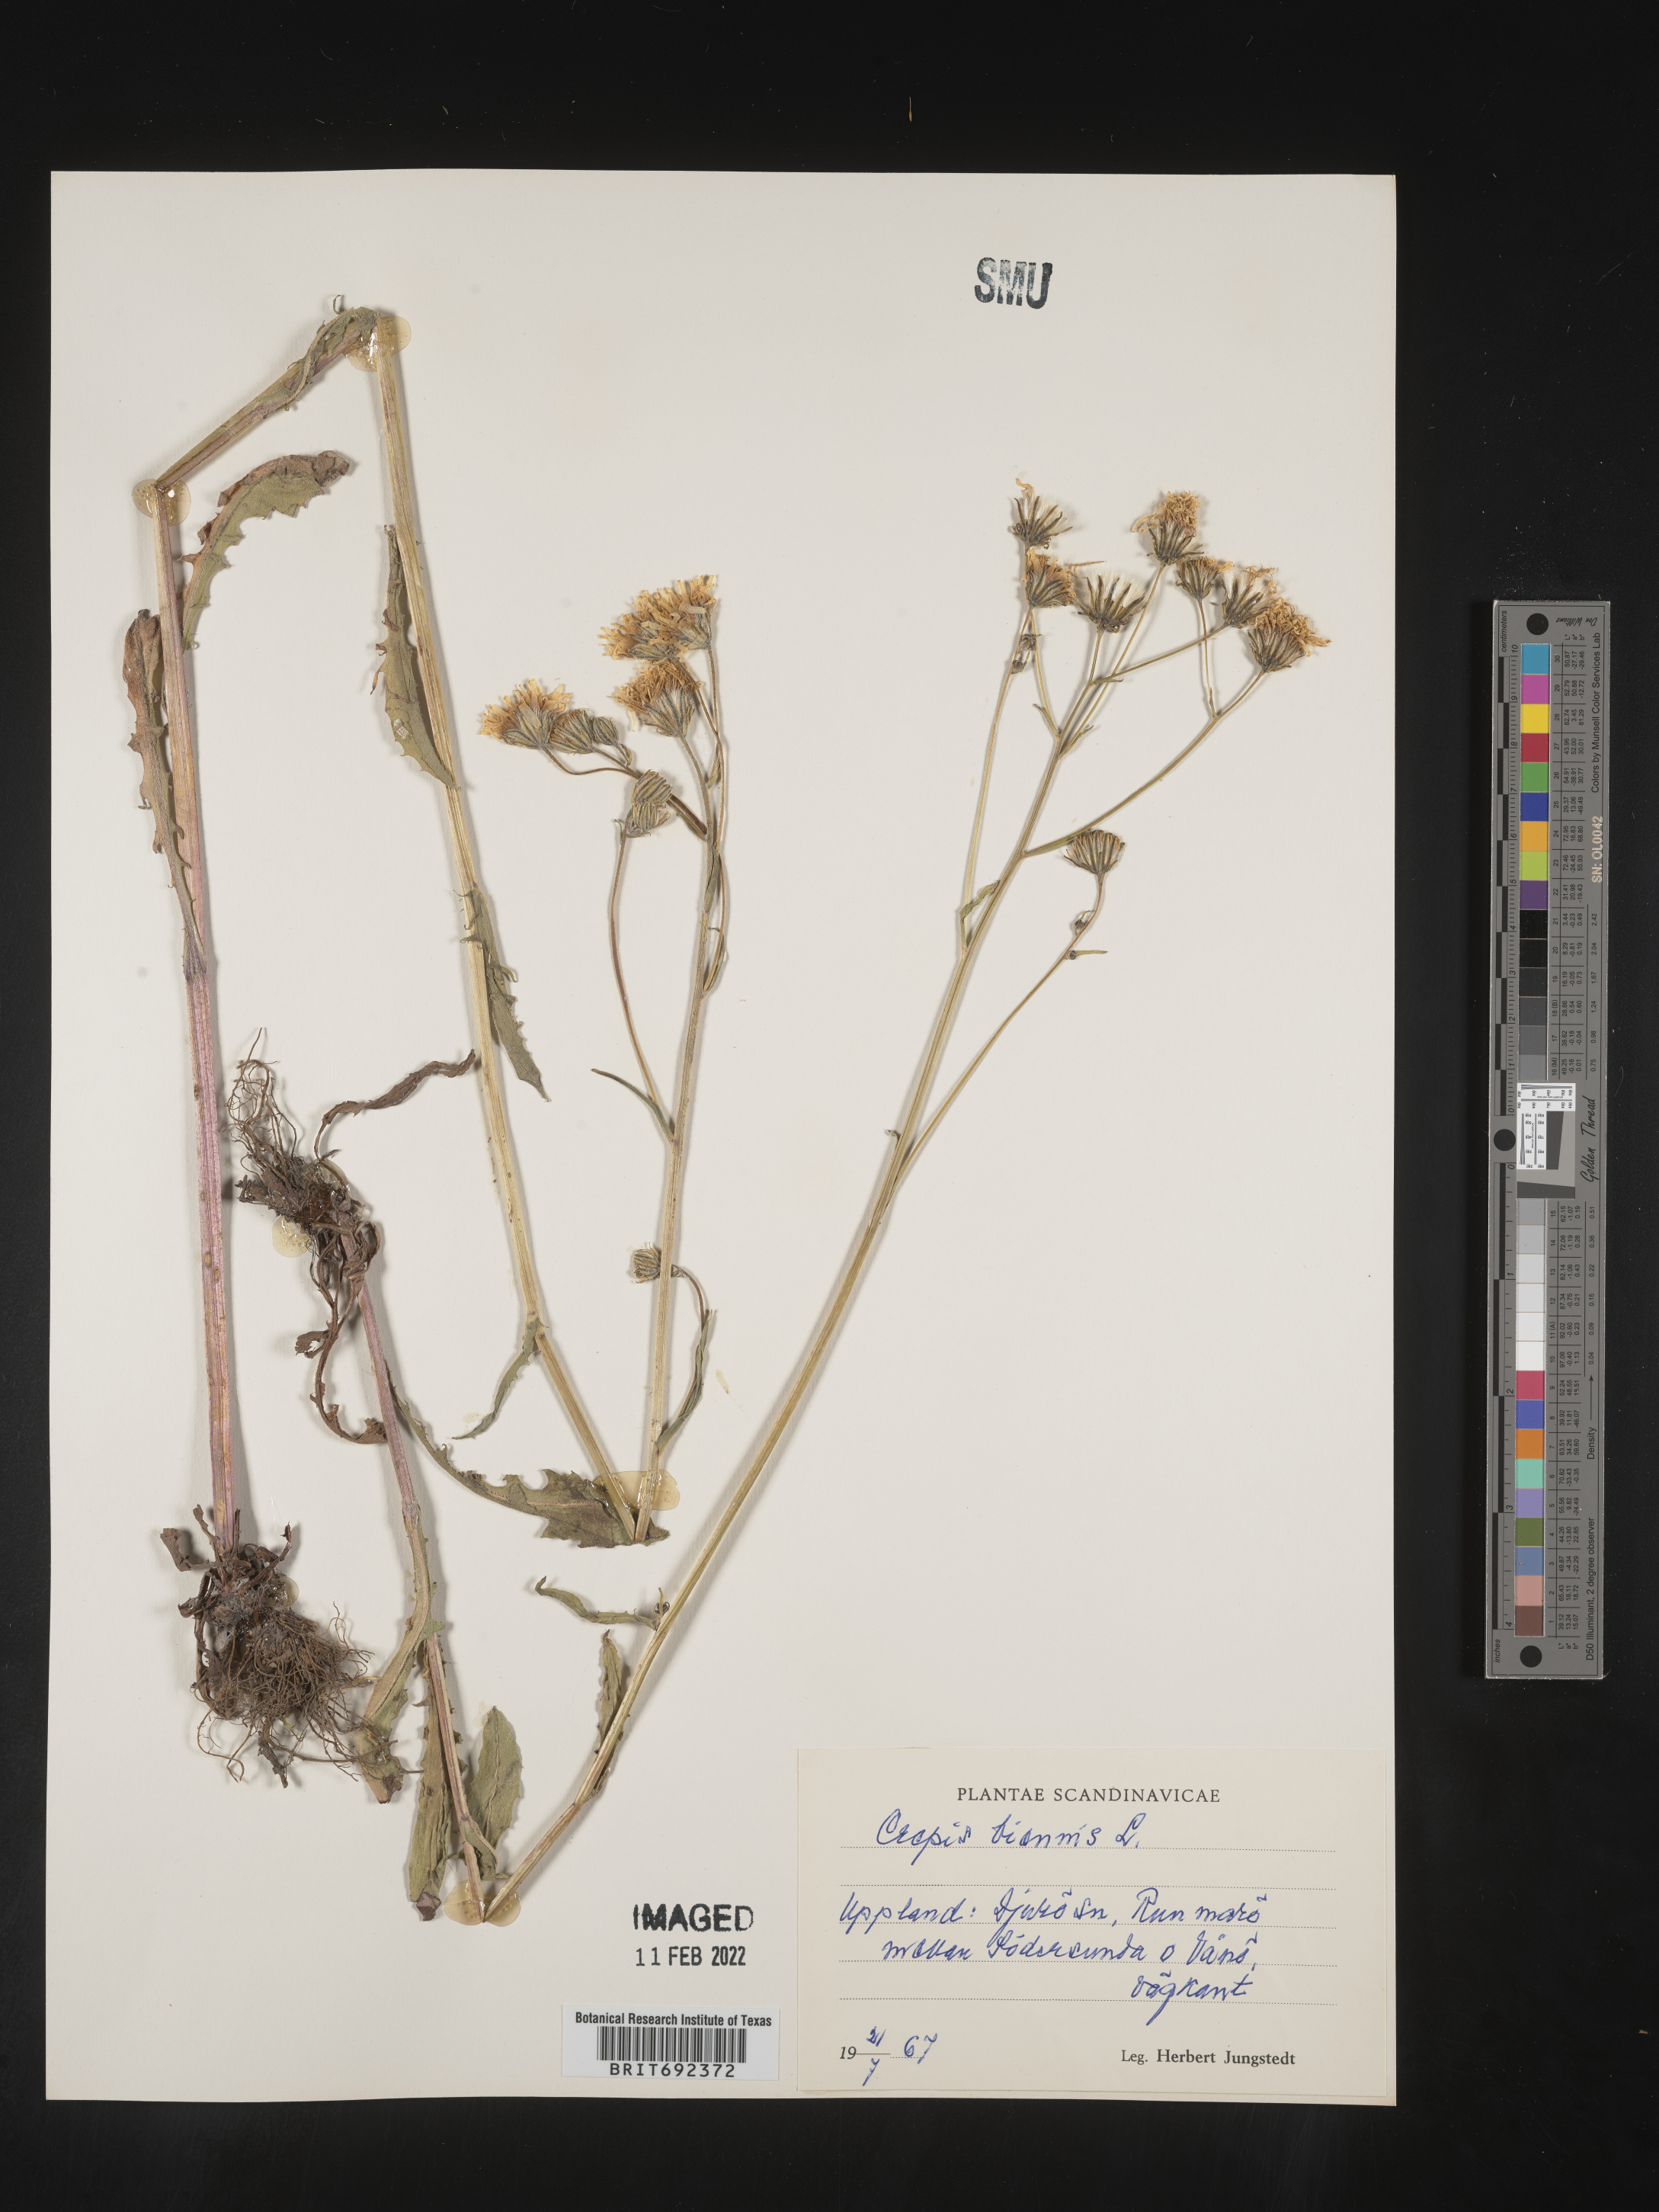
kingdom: Plantae
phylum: Tracheophyta
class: Magnoliopsida
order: Asterales
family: Asteraceae
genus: Crepis
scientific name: Crepis
